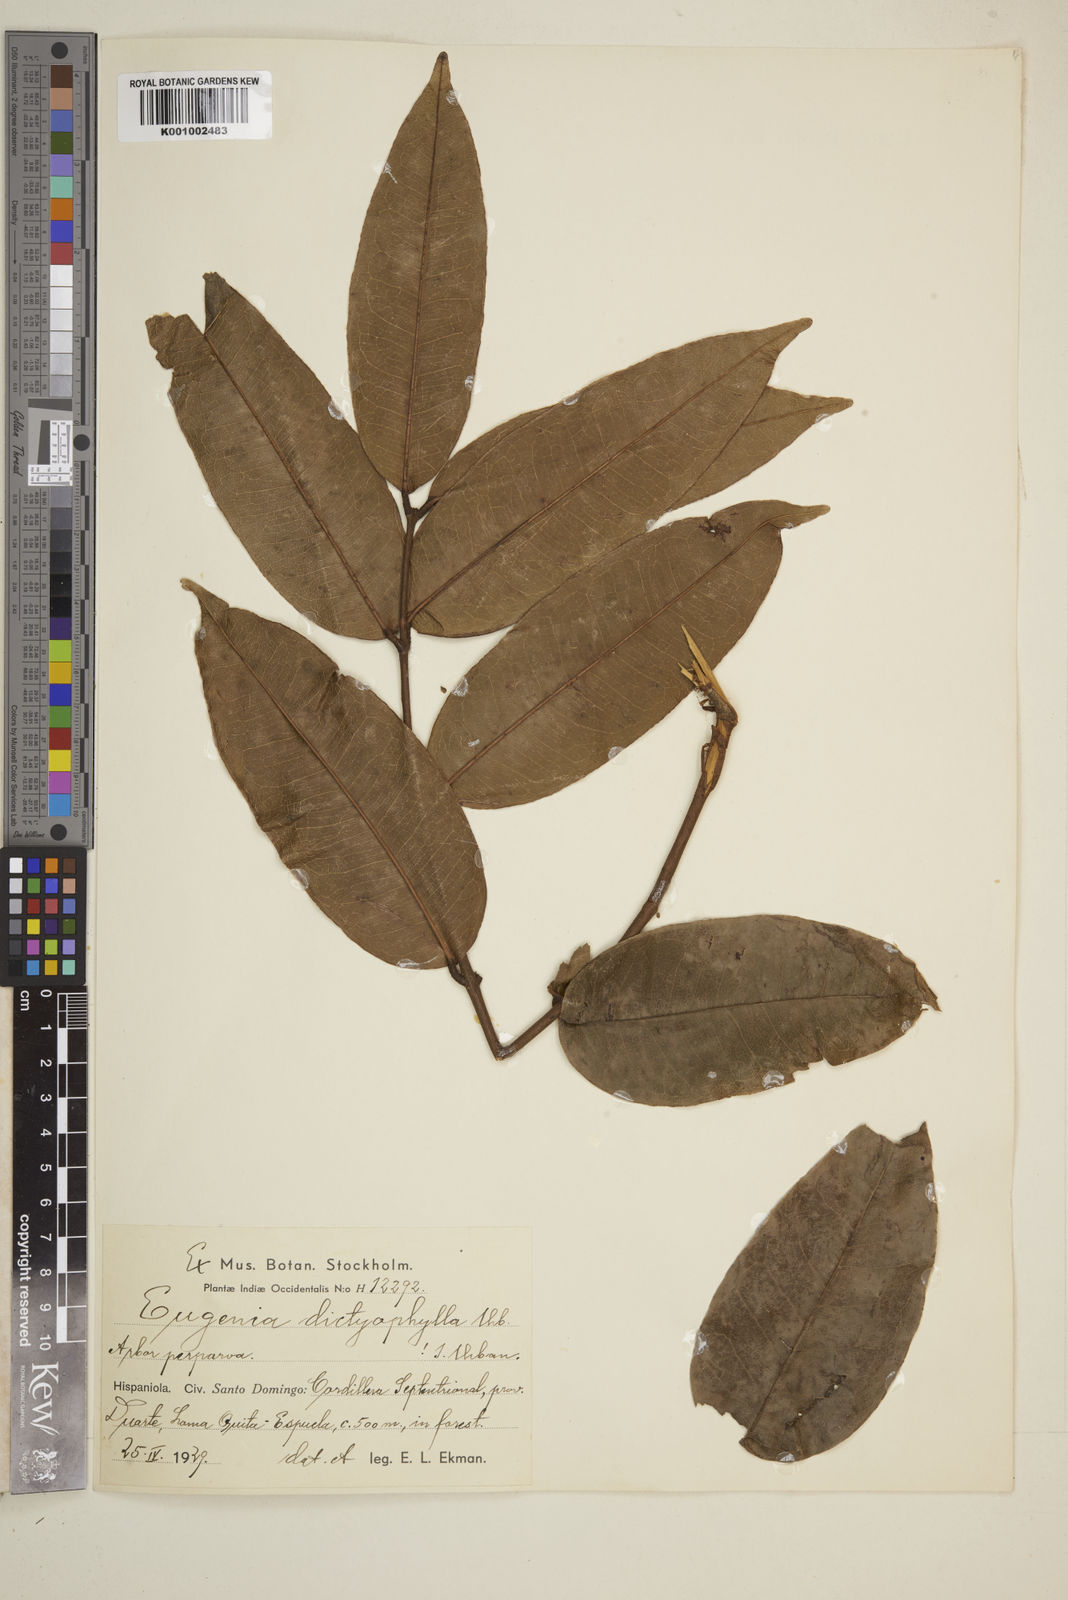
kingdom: Plantae
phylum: Tracheophyta
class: Magnoliopsida
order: Myrtales
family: Myrtaceae
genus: Eugenia
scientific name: Eugenia dictyophylla
